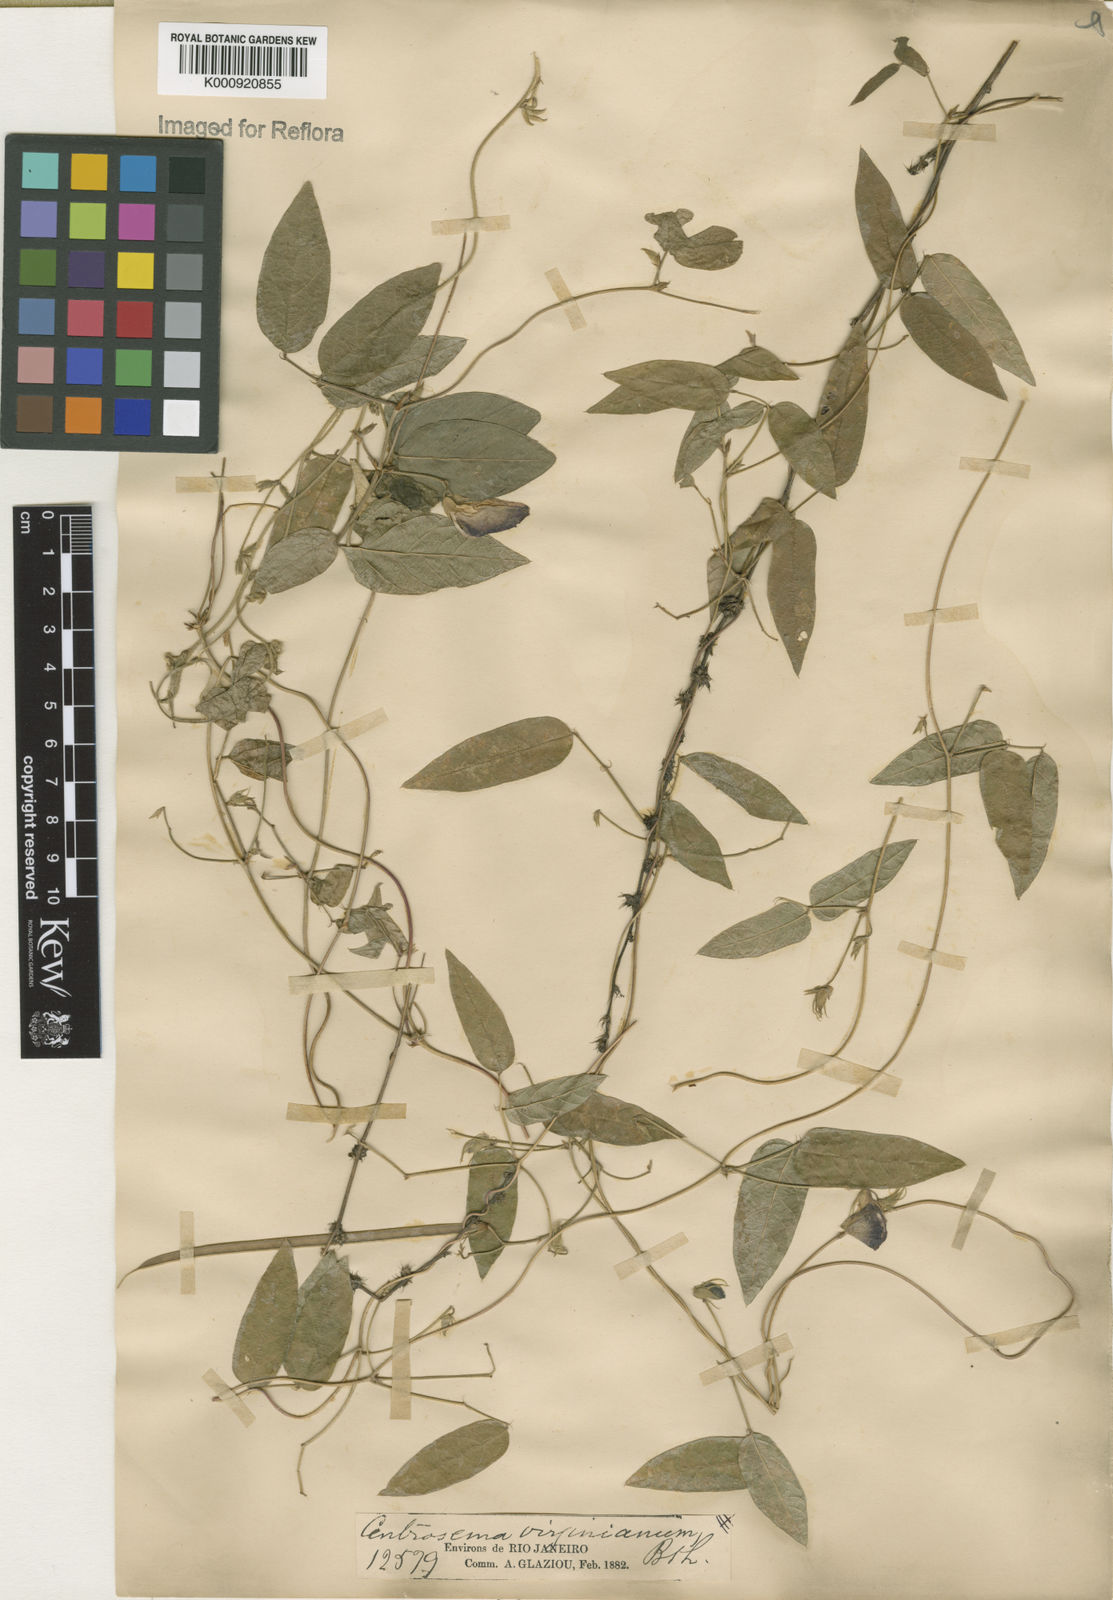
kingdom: Plantae
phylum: Tracheophyta
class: Magnoliopsida
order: Fabales
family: Fabaceae
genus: Centrosema
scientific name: Centrosema virginianum
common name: Butterfly-pea
